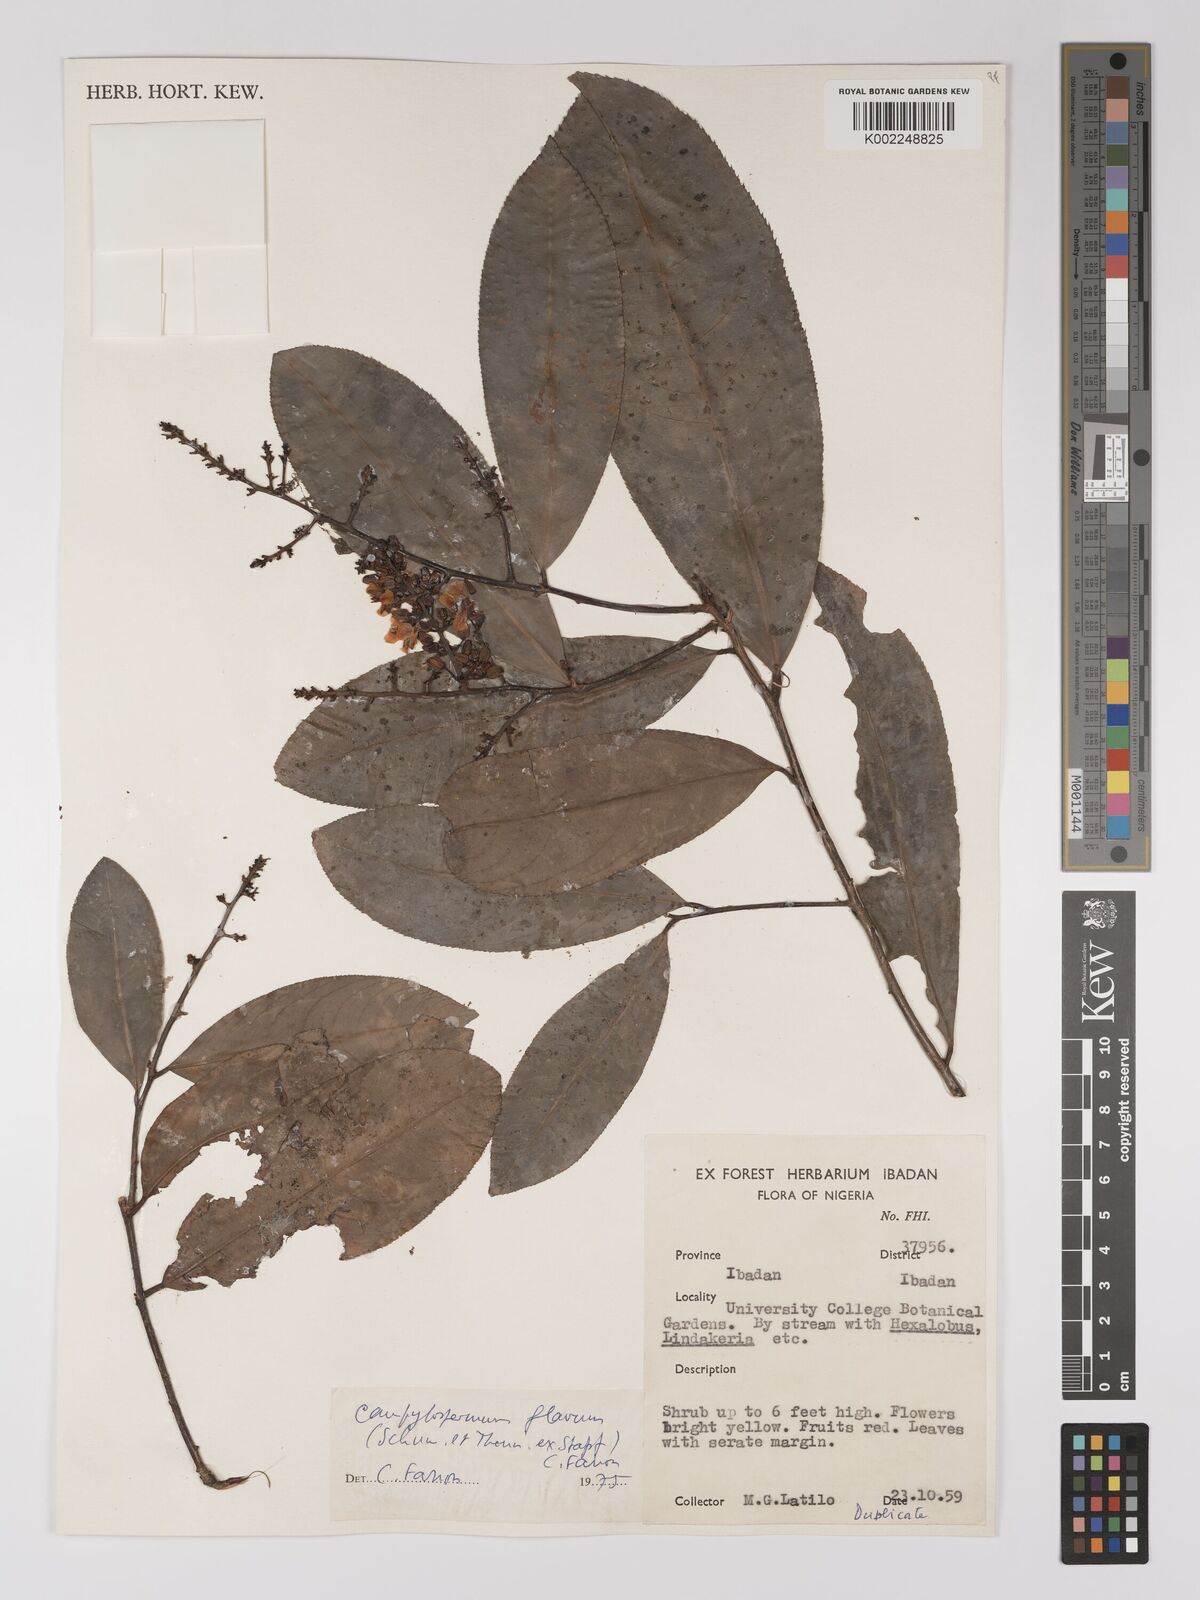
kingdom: Plantae
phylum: Tracheophyta
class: Magnoliopsida
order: Malpighiales
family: Ochnaceae
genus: Campylospermum
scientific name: Campylospermum flavum
